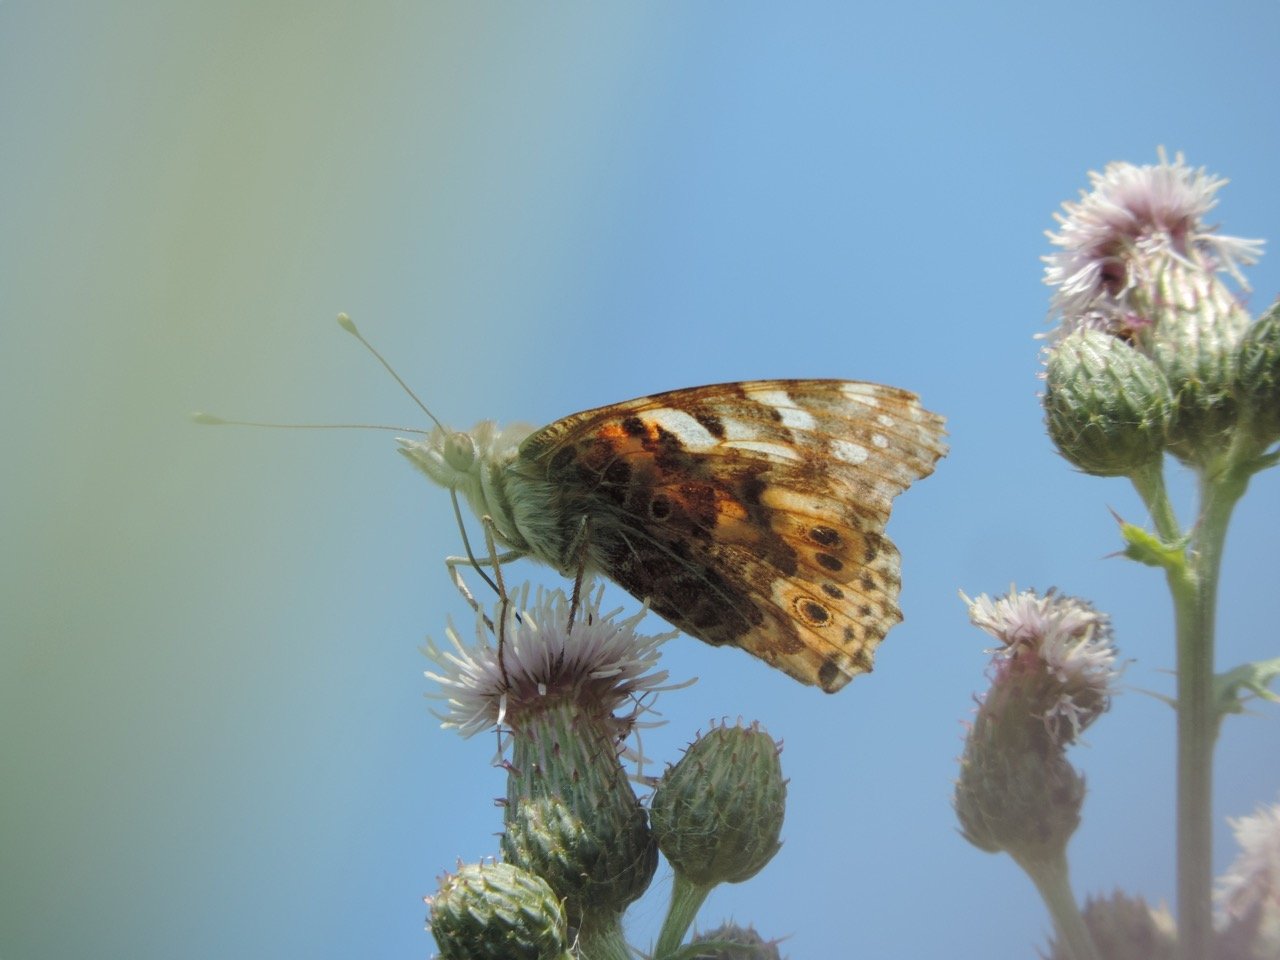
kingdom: Animalia
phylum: Arthropoda
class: Insecta
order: Lepidoptera
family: Nymphalidae
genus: Vanessa
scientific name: Vanessa cardui
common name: Painted Lady
